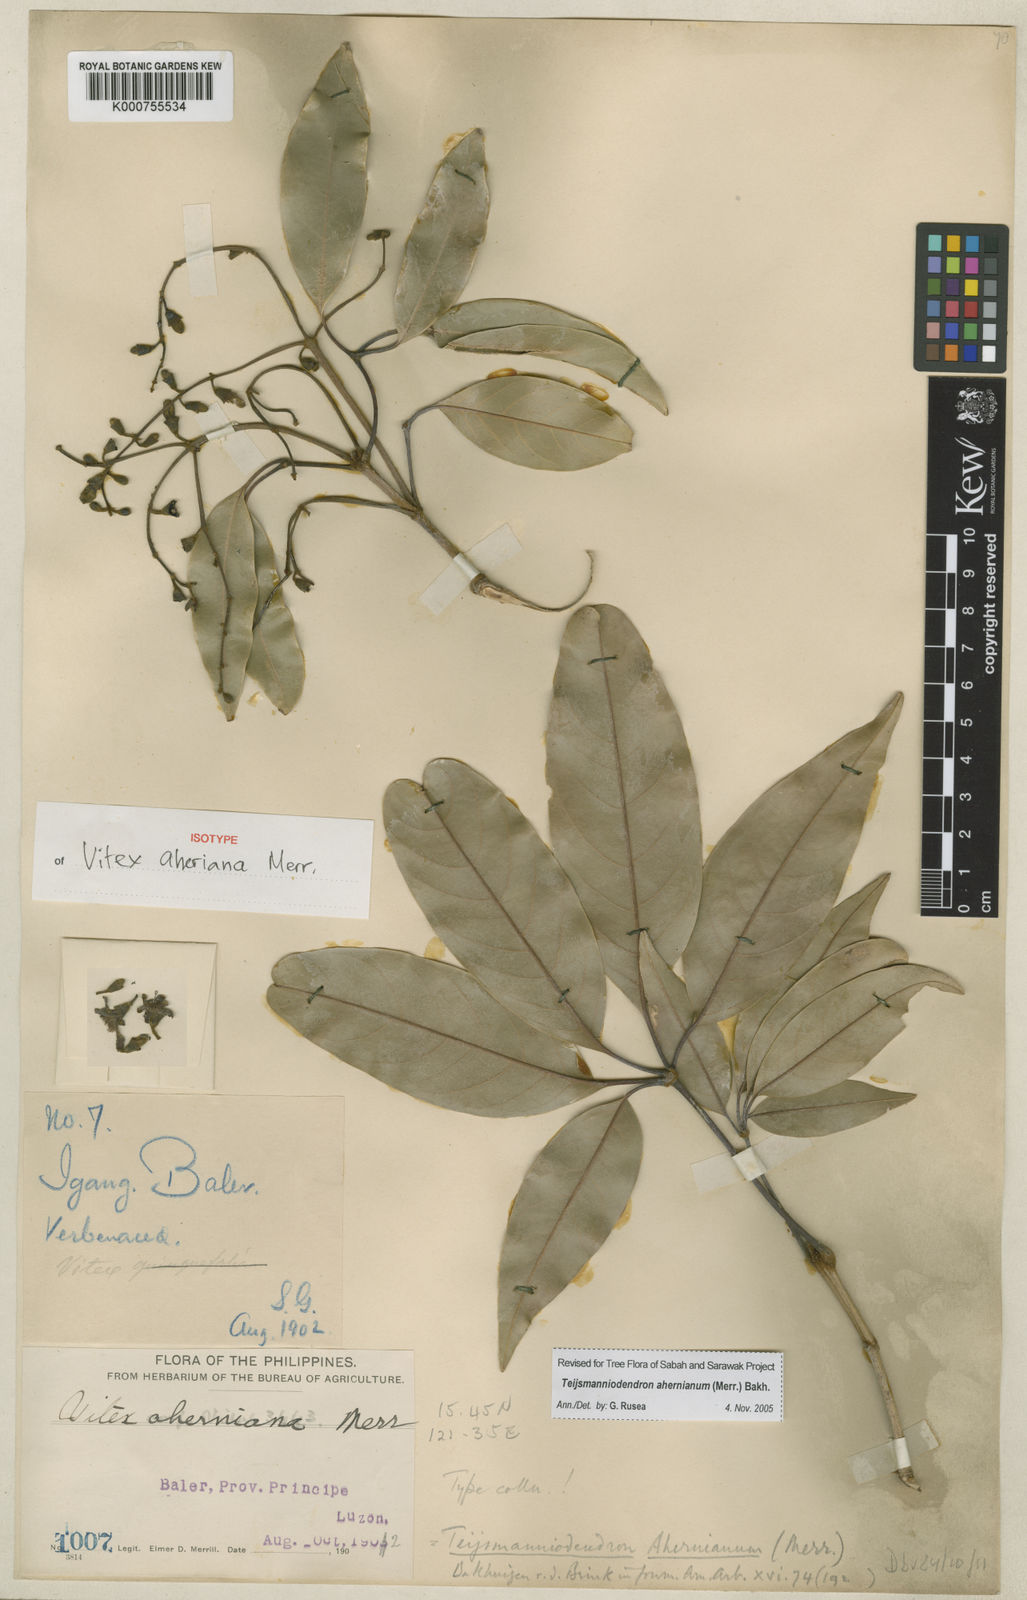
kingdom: Plantae
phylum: Tracheophyta
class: Magnoliopsida
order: Lamiales
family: Lamiaceae
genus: Teijsmanniodendron
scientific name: Teijsmanniodendron ahernianum
